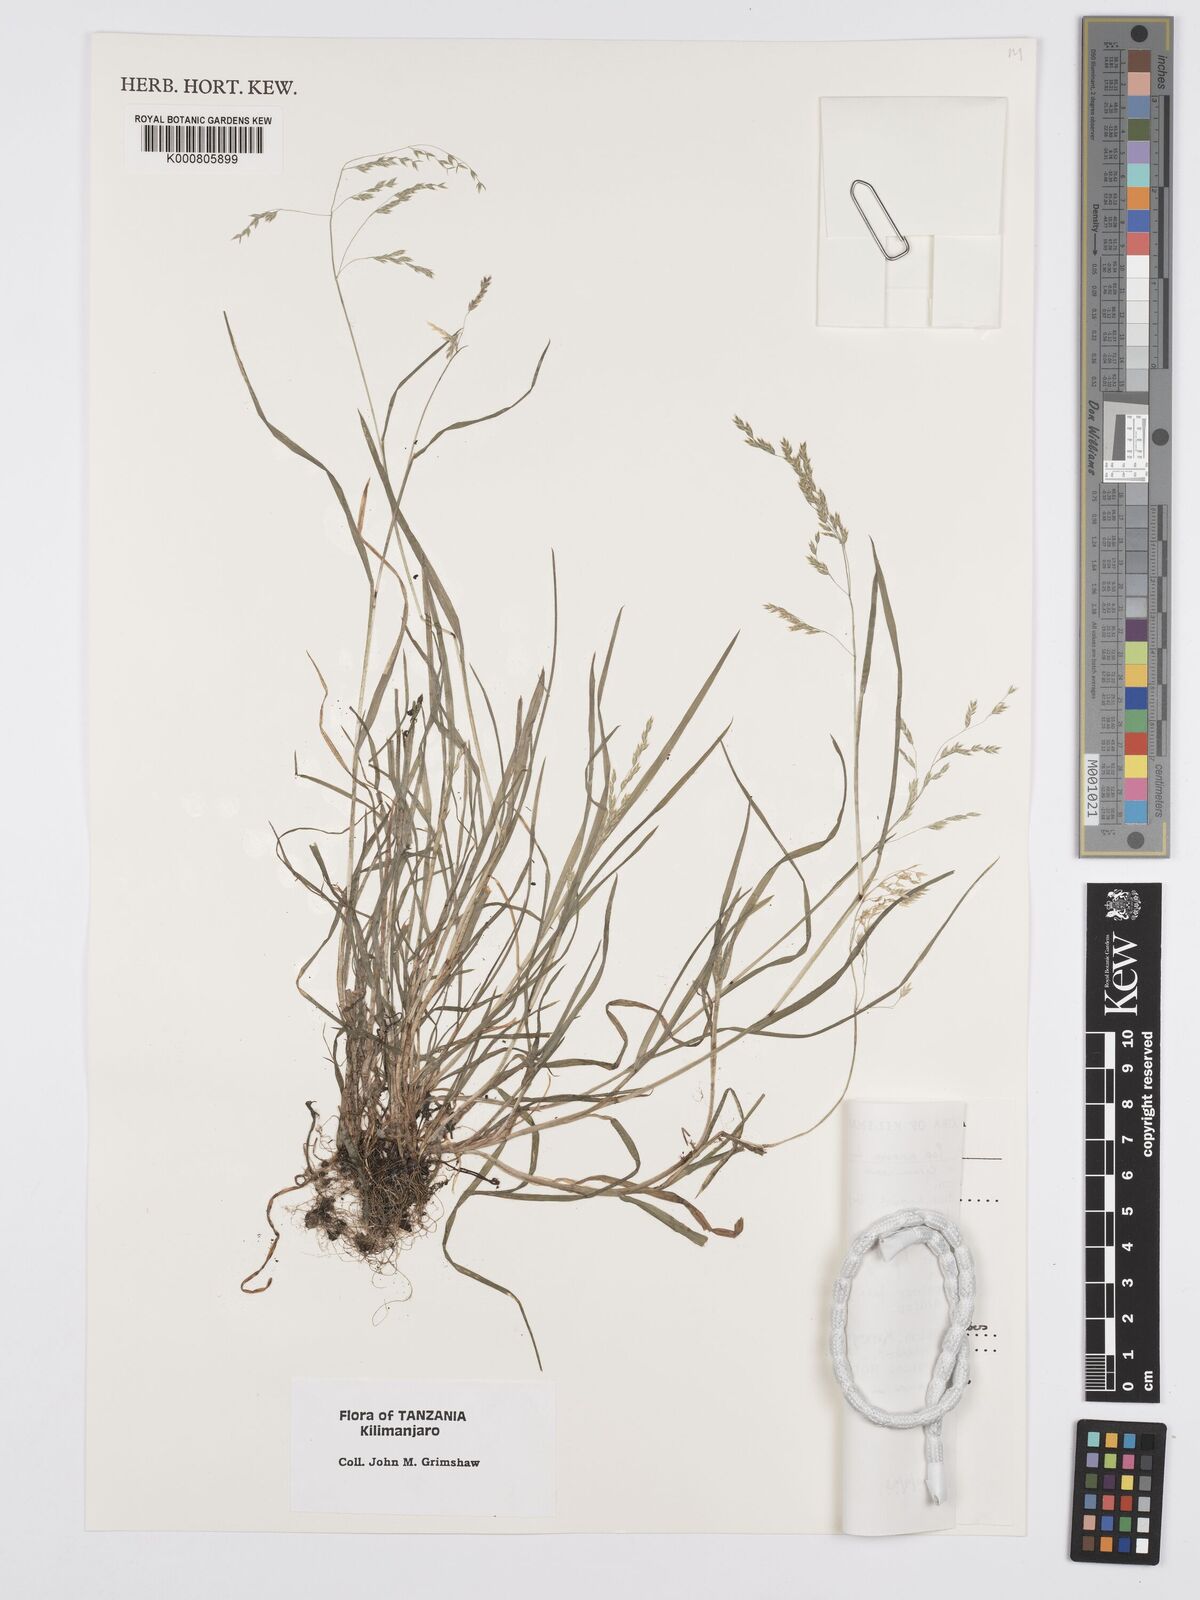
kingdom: Plantae
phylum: Tracheophyta
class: Liliopsida
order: Poales
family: Poaceae
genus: Poa
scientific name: Poa annua
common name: Annual bluegrass
